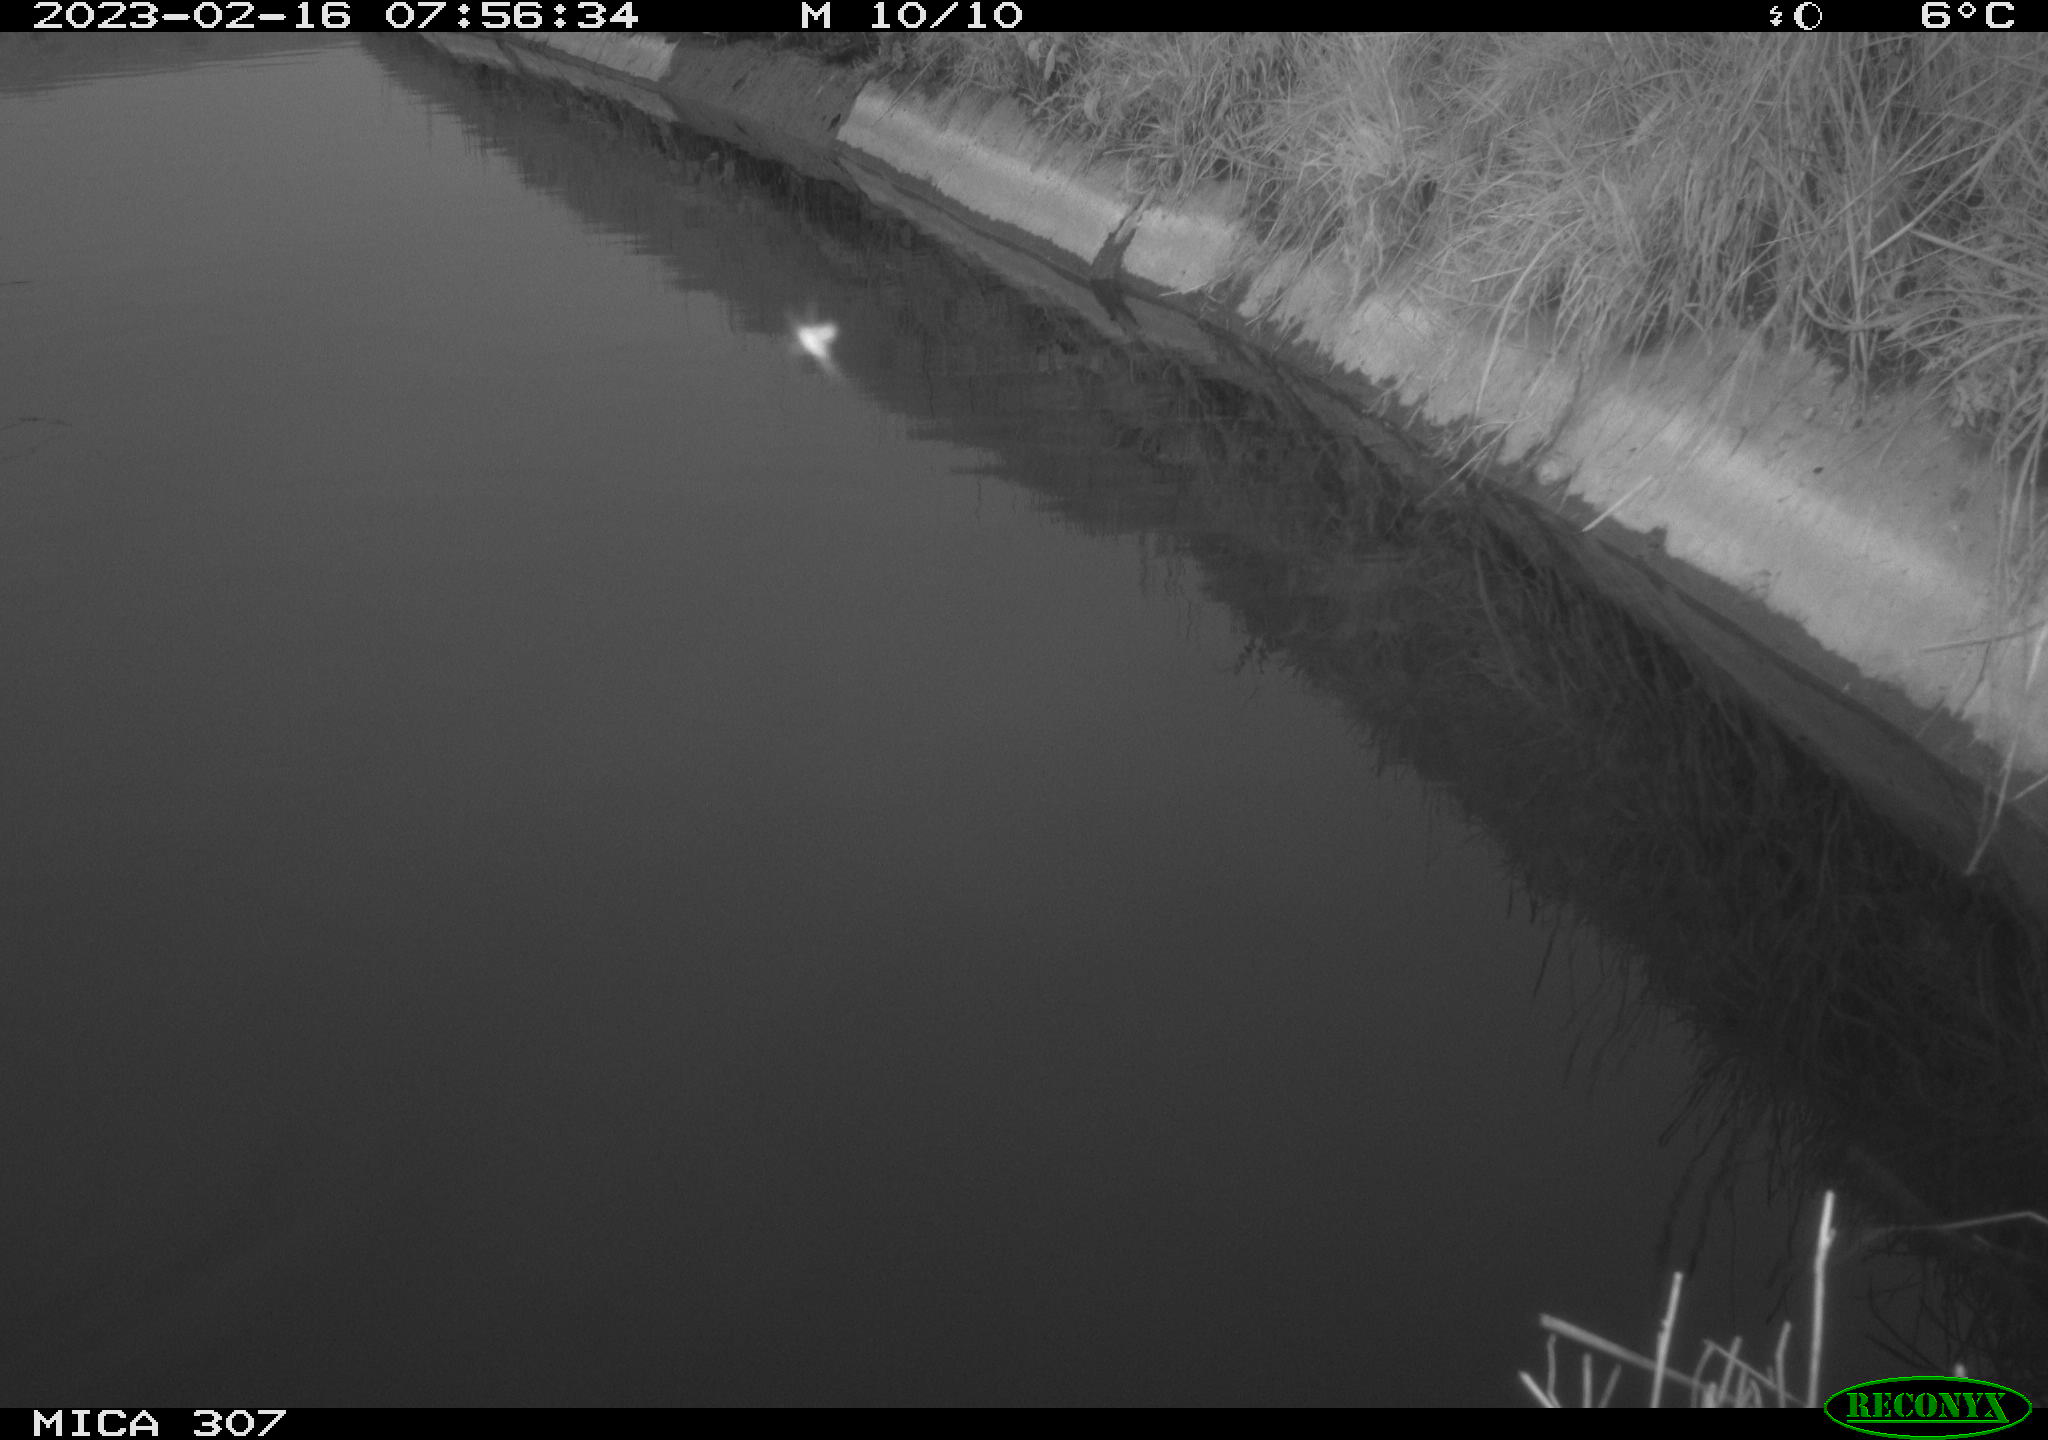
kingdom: Animalia
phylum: Chordata
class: Aves
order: Gruiformes
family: Rallidae
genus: Gallinula
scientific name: Gallinula chloropus
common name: Common moorhen
